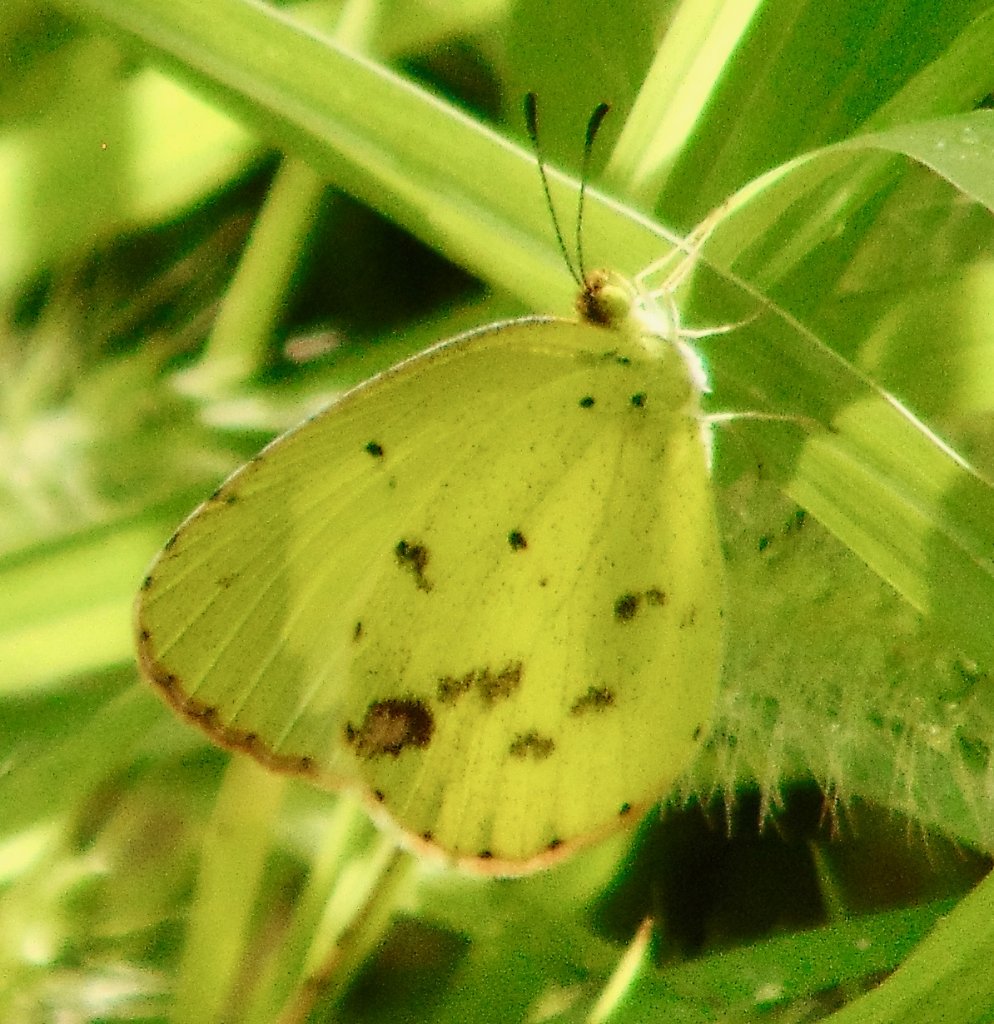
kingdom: Animalia
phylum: Arthropoda
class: Insecta
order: Lepidoptera
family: Pieridae
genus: Pyrisitia
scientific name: Pyrisitia lisa
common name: Little Yellow
